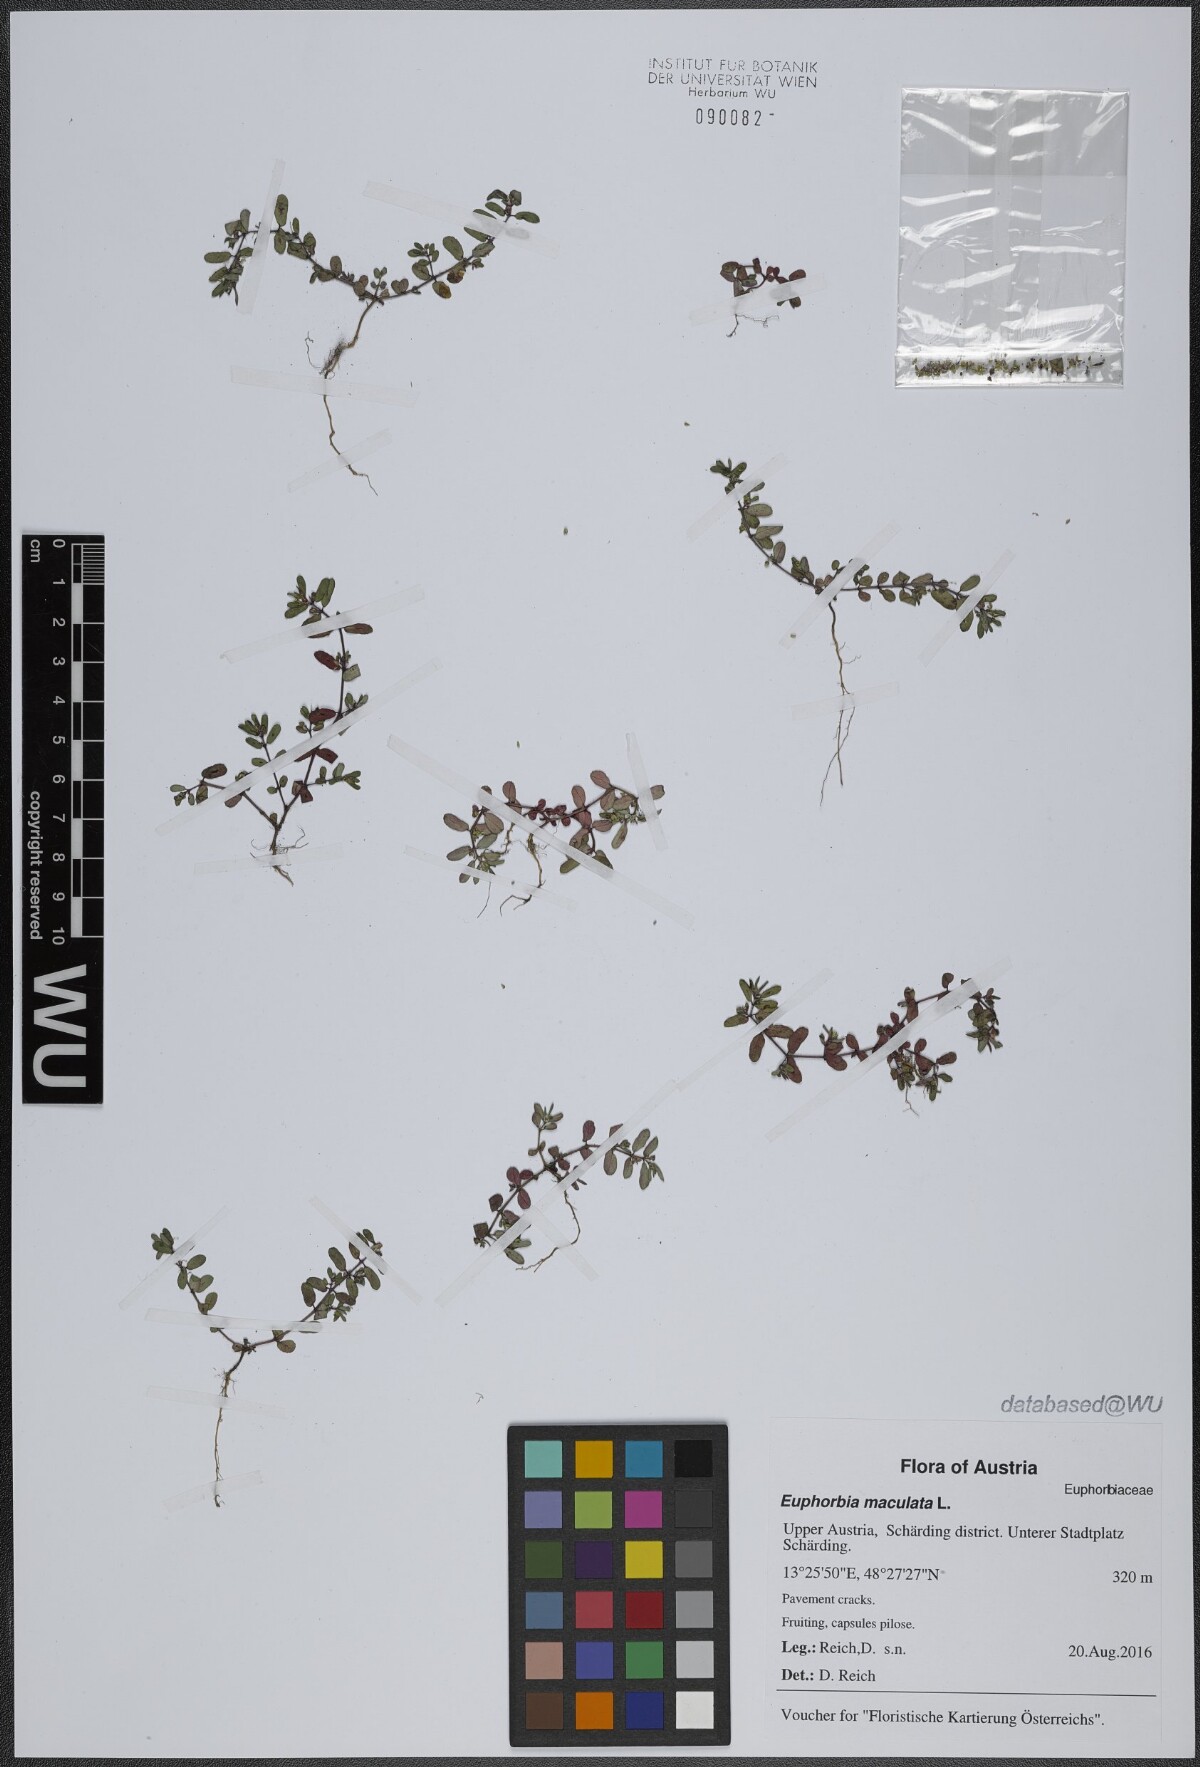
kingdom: Plantae
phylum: Tracheophyta
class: Magnoliopsida
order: Malpighiales
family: Euphorbiaceae
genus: Euphorbia
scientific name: Euphorbia maculata
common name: Spotted spurge
